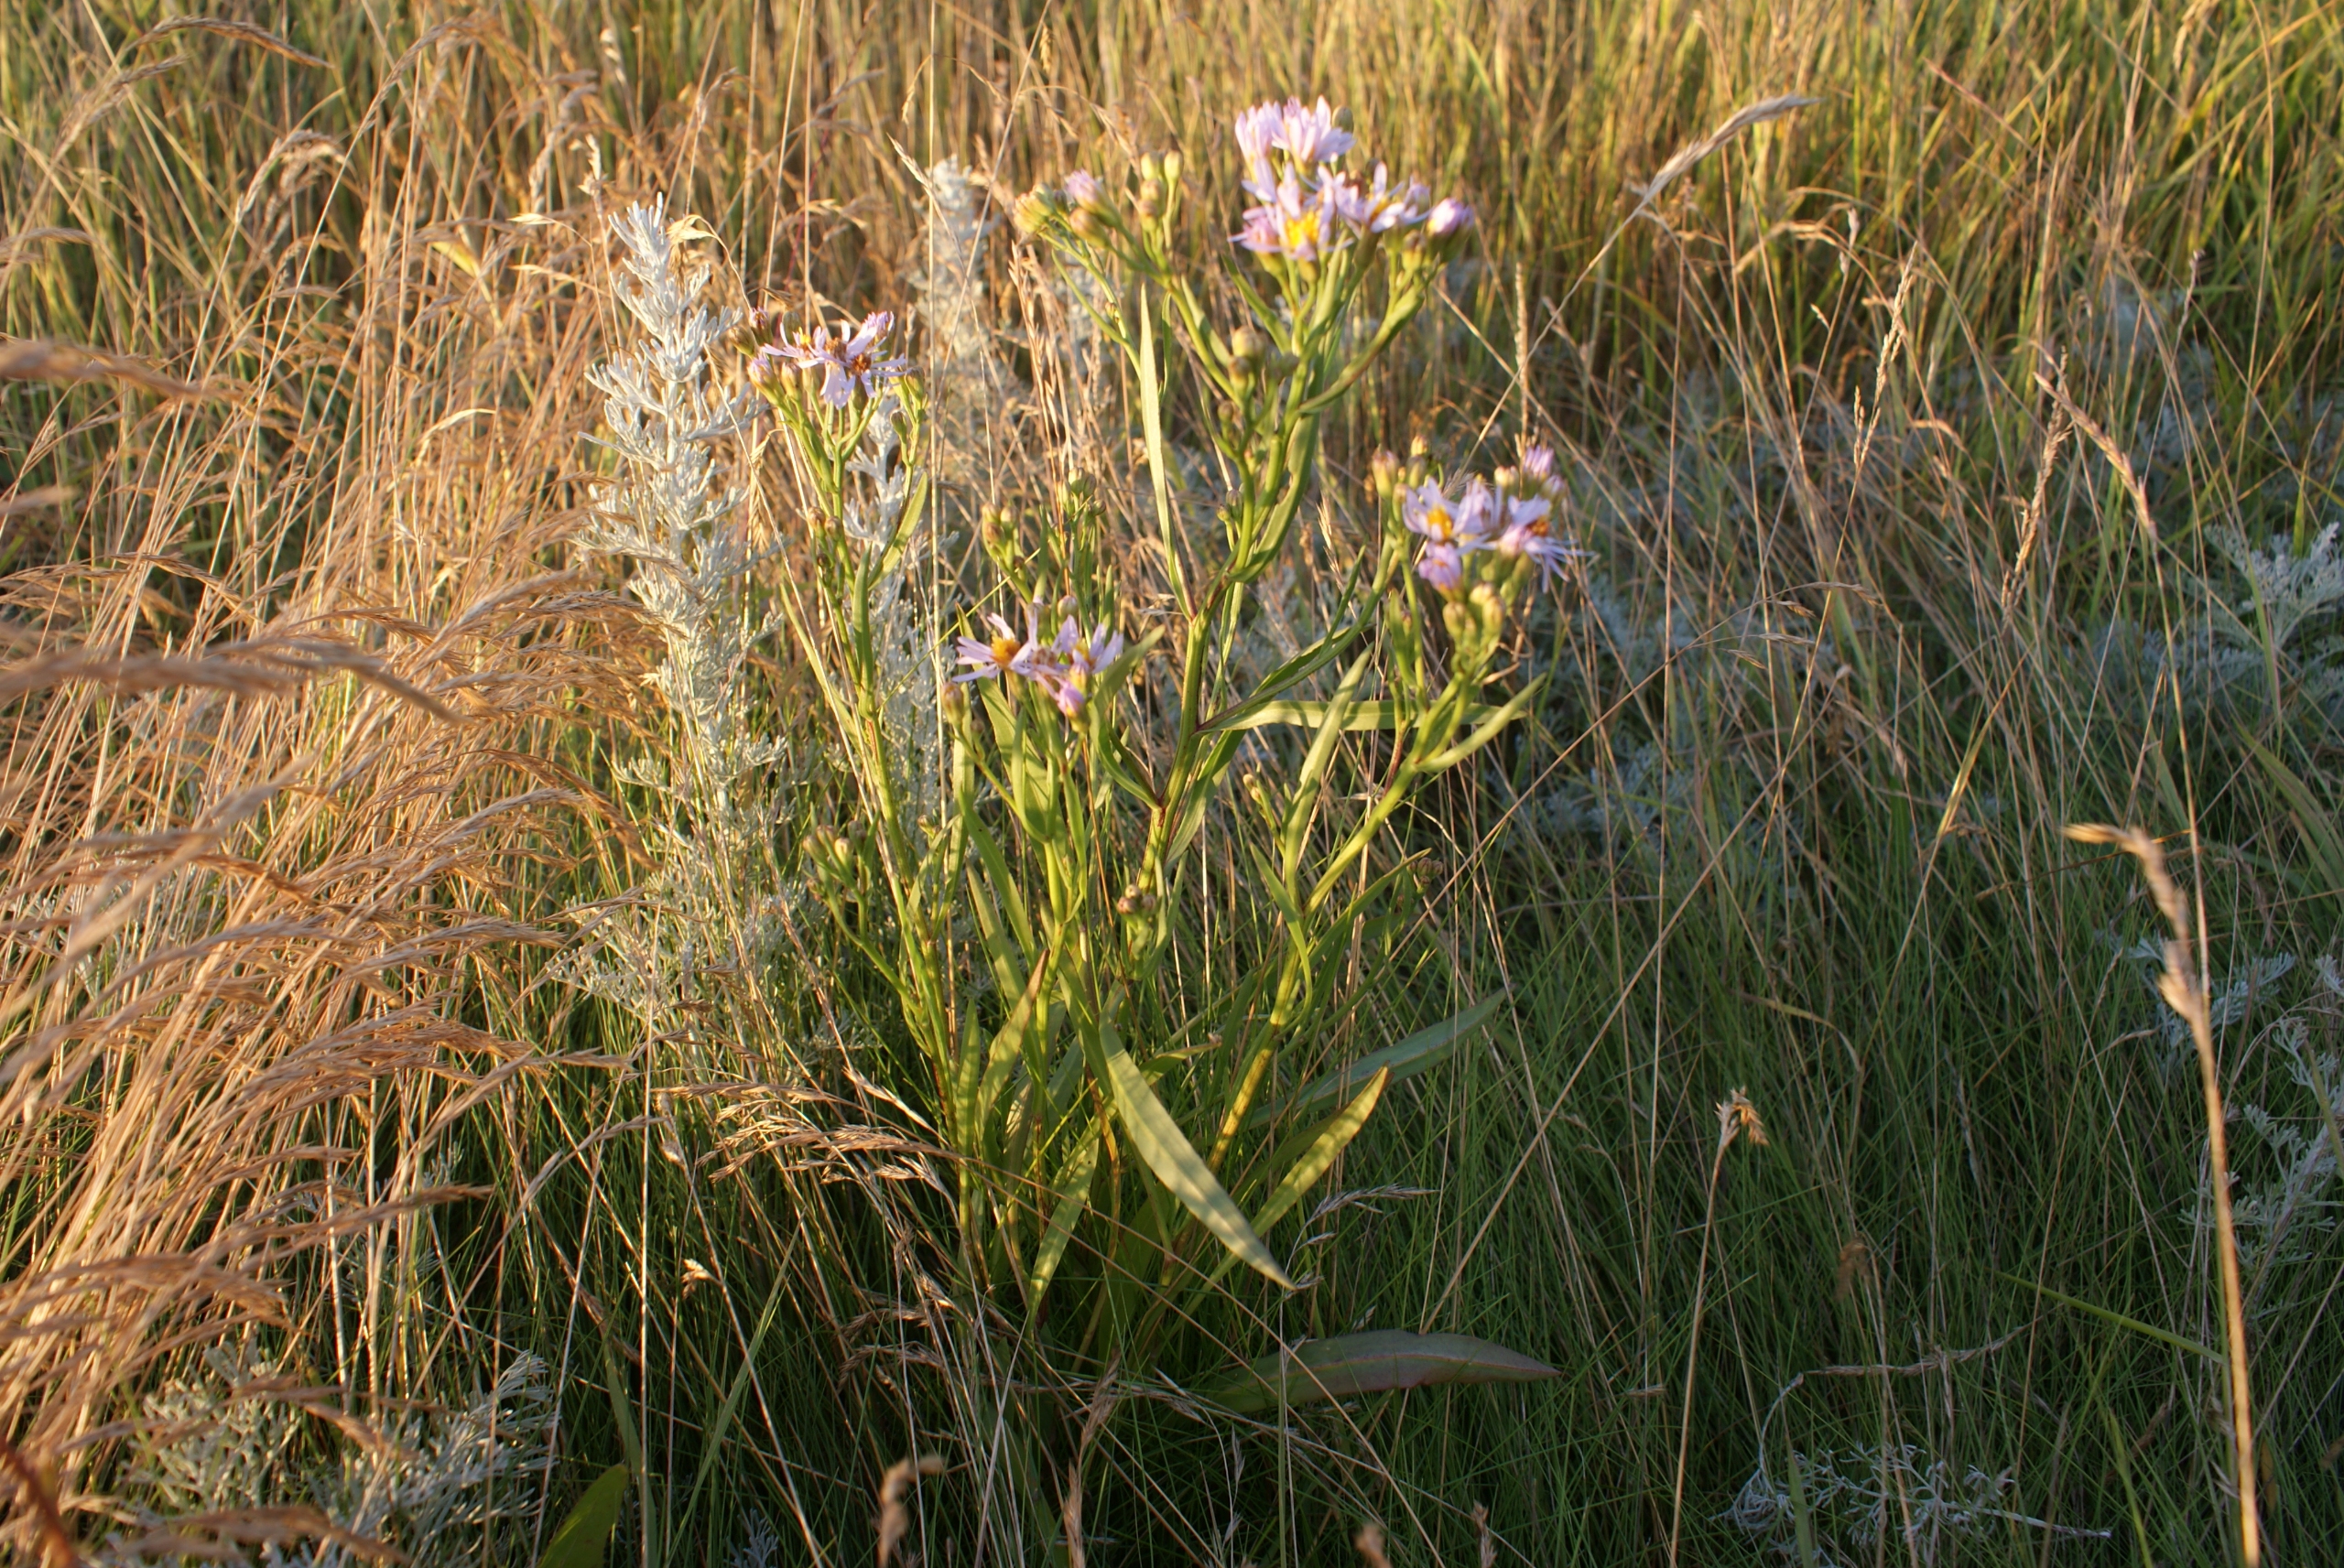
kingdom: Plantae
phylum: Tracheophyta
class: Magnoliopsida
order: Asterales
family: Asteraceae
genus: Tripolium
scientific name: Tripolium
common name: Strandastersslægten
